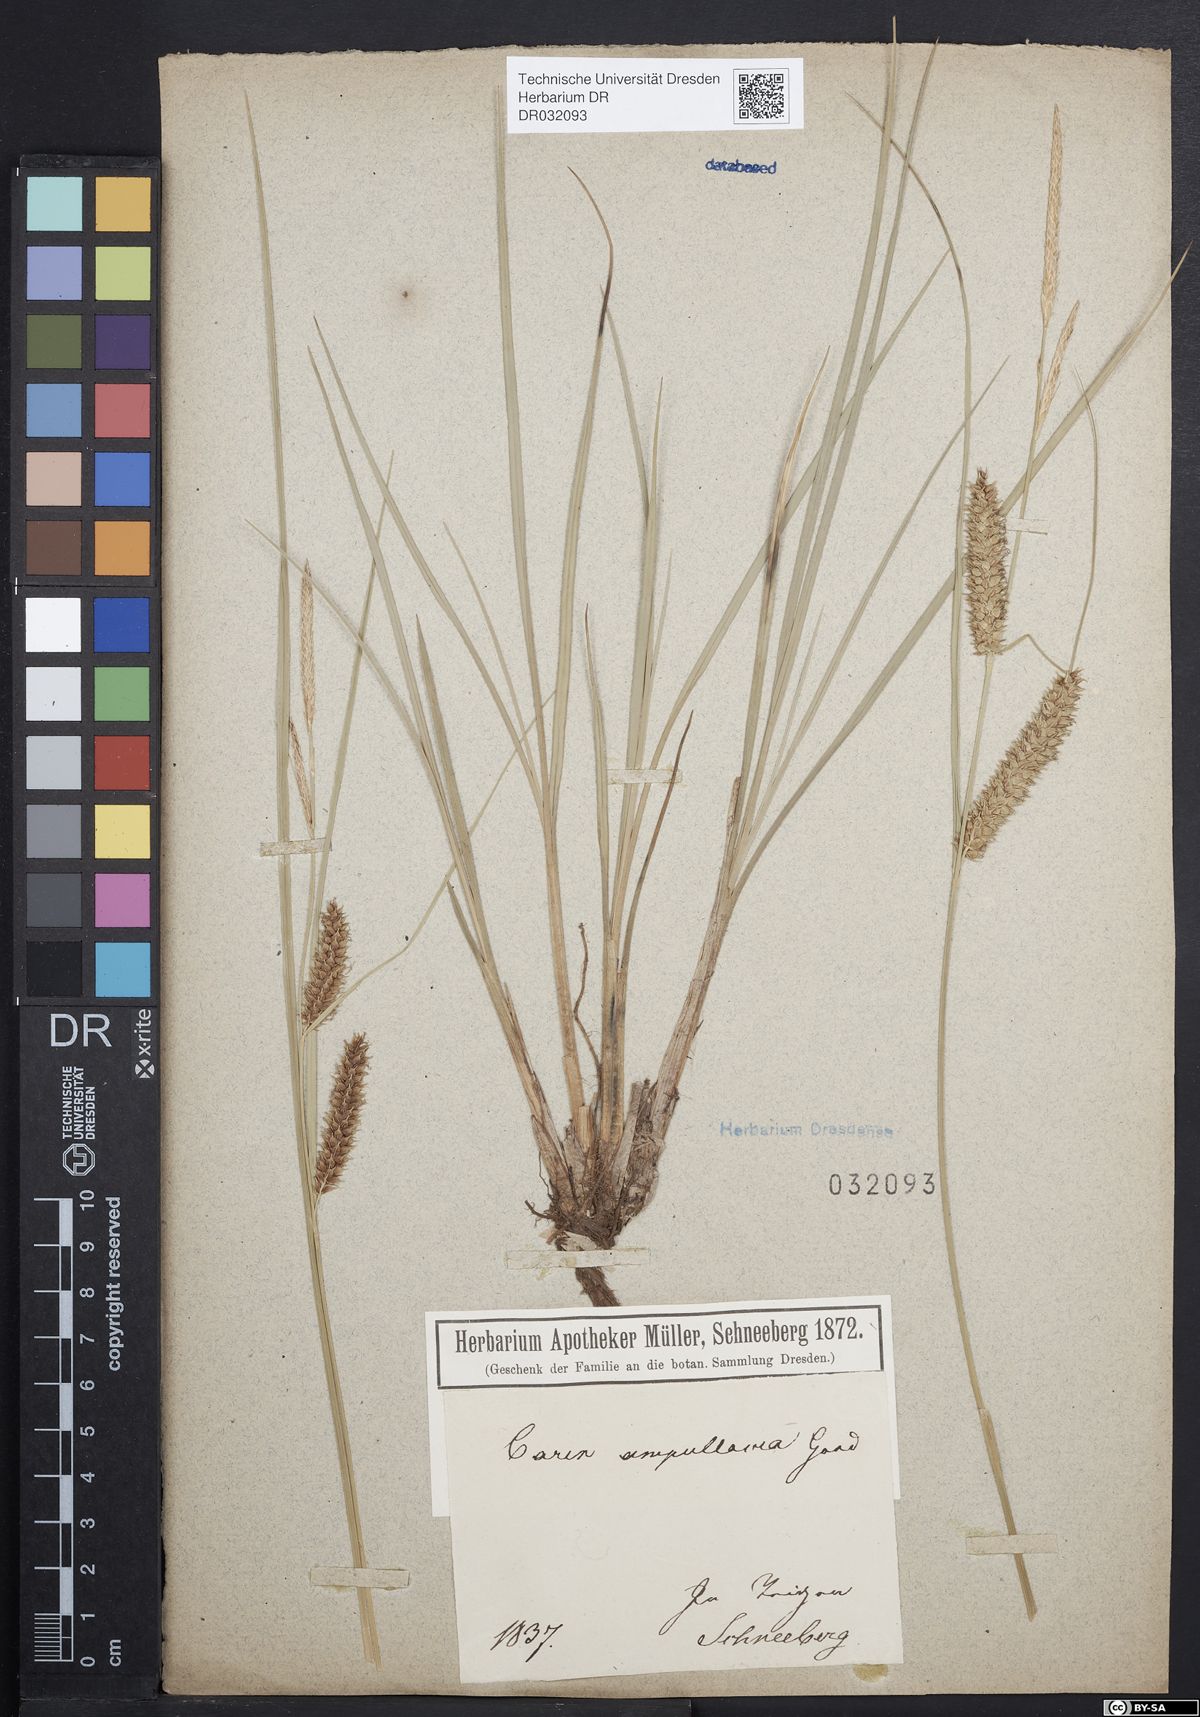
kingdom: Plantae
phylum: Tracheophyta
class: Liliopsida
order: Poales
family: Cyperaceae
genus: Carex
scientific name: Carex rostrata
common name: Bottle sedge
